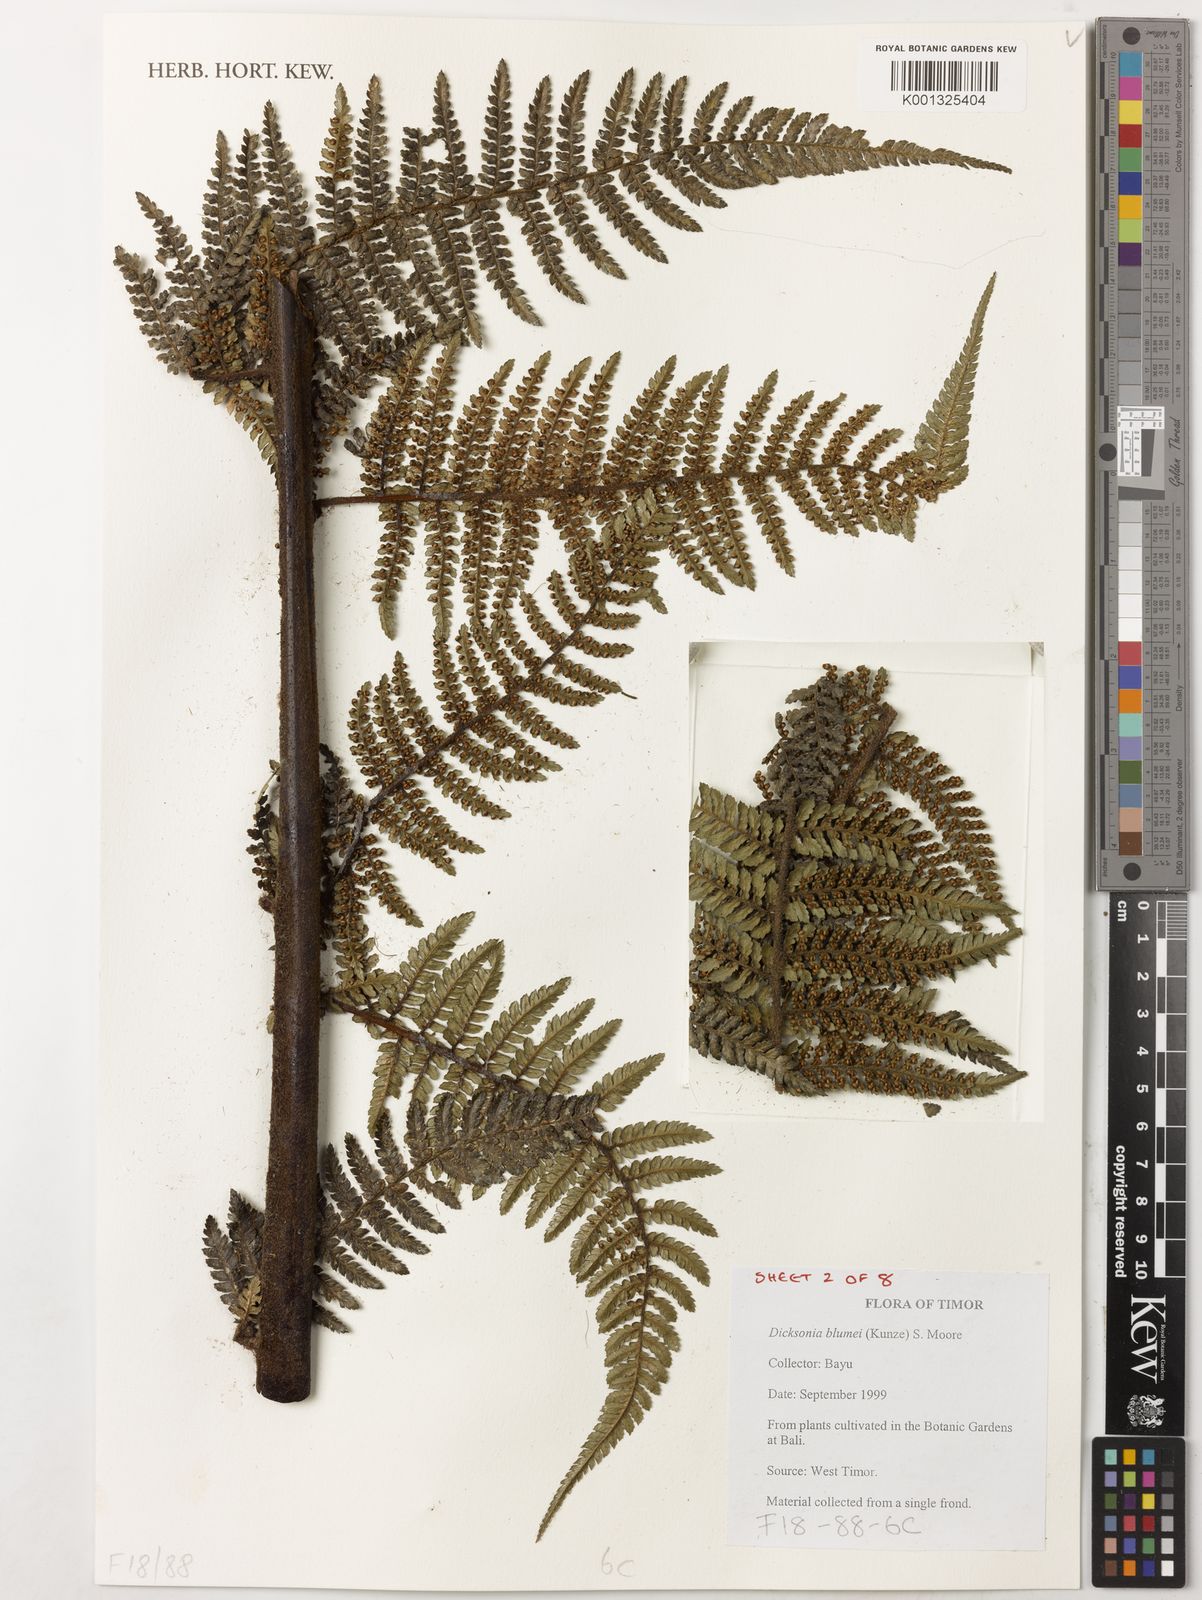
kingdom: Plantae
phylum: Tracheophyta
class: Polypodiopsida
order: Cyatheales
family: Dicksoniaceae
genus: Dicksonia
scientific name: Dicksonia
